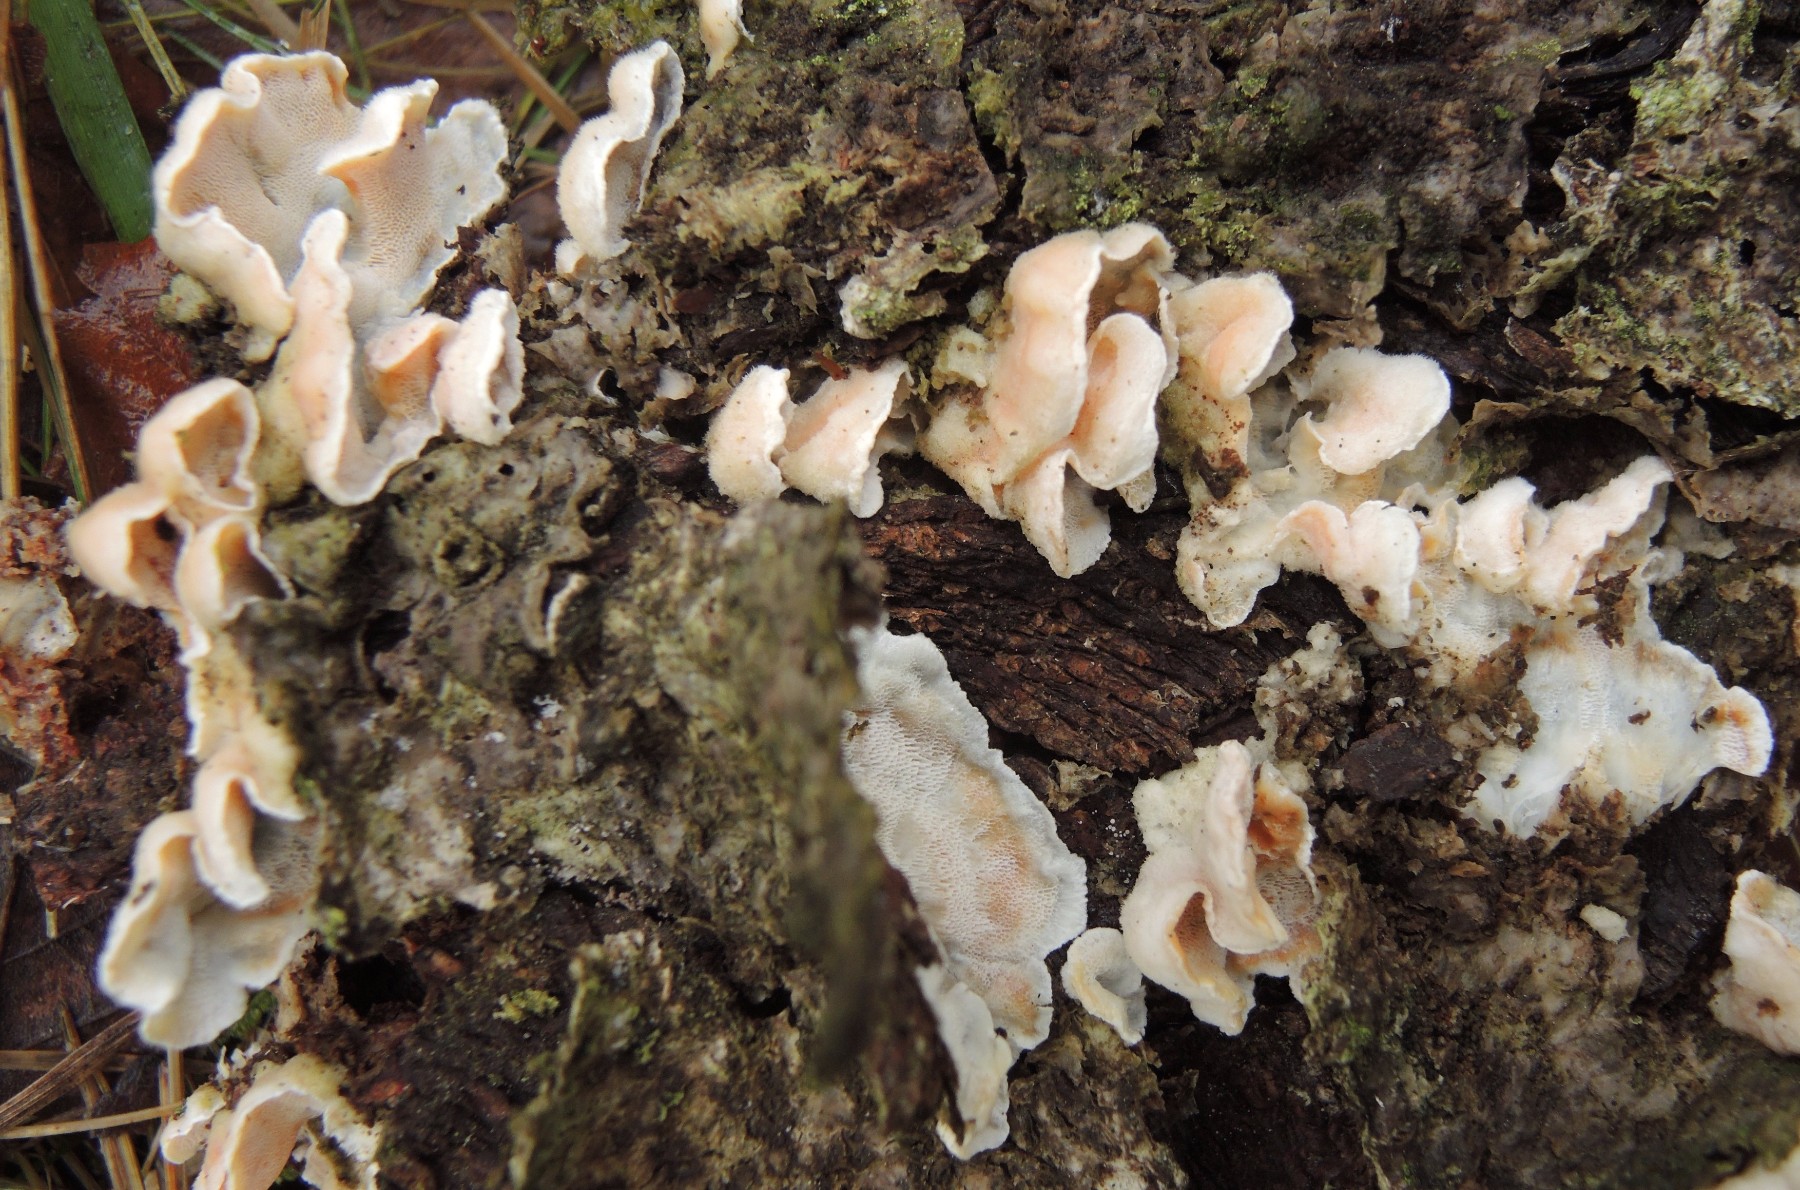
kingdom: Fungi
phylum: Basidiomycota
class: Agaricomycetes
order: Polyporales
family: Incrustoporiaceae
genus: Skeletocutis
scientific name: Skeletocutis amorpha
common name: orange krystalporesvamp
